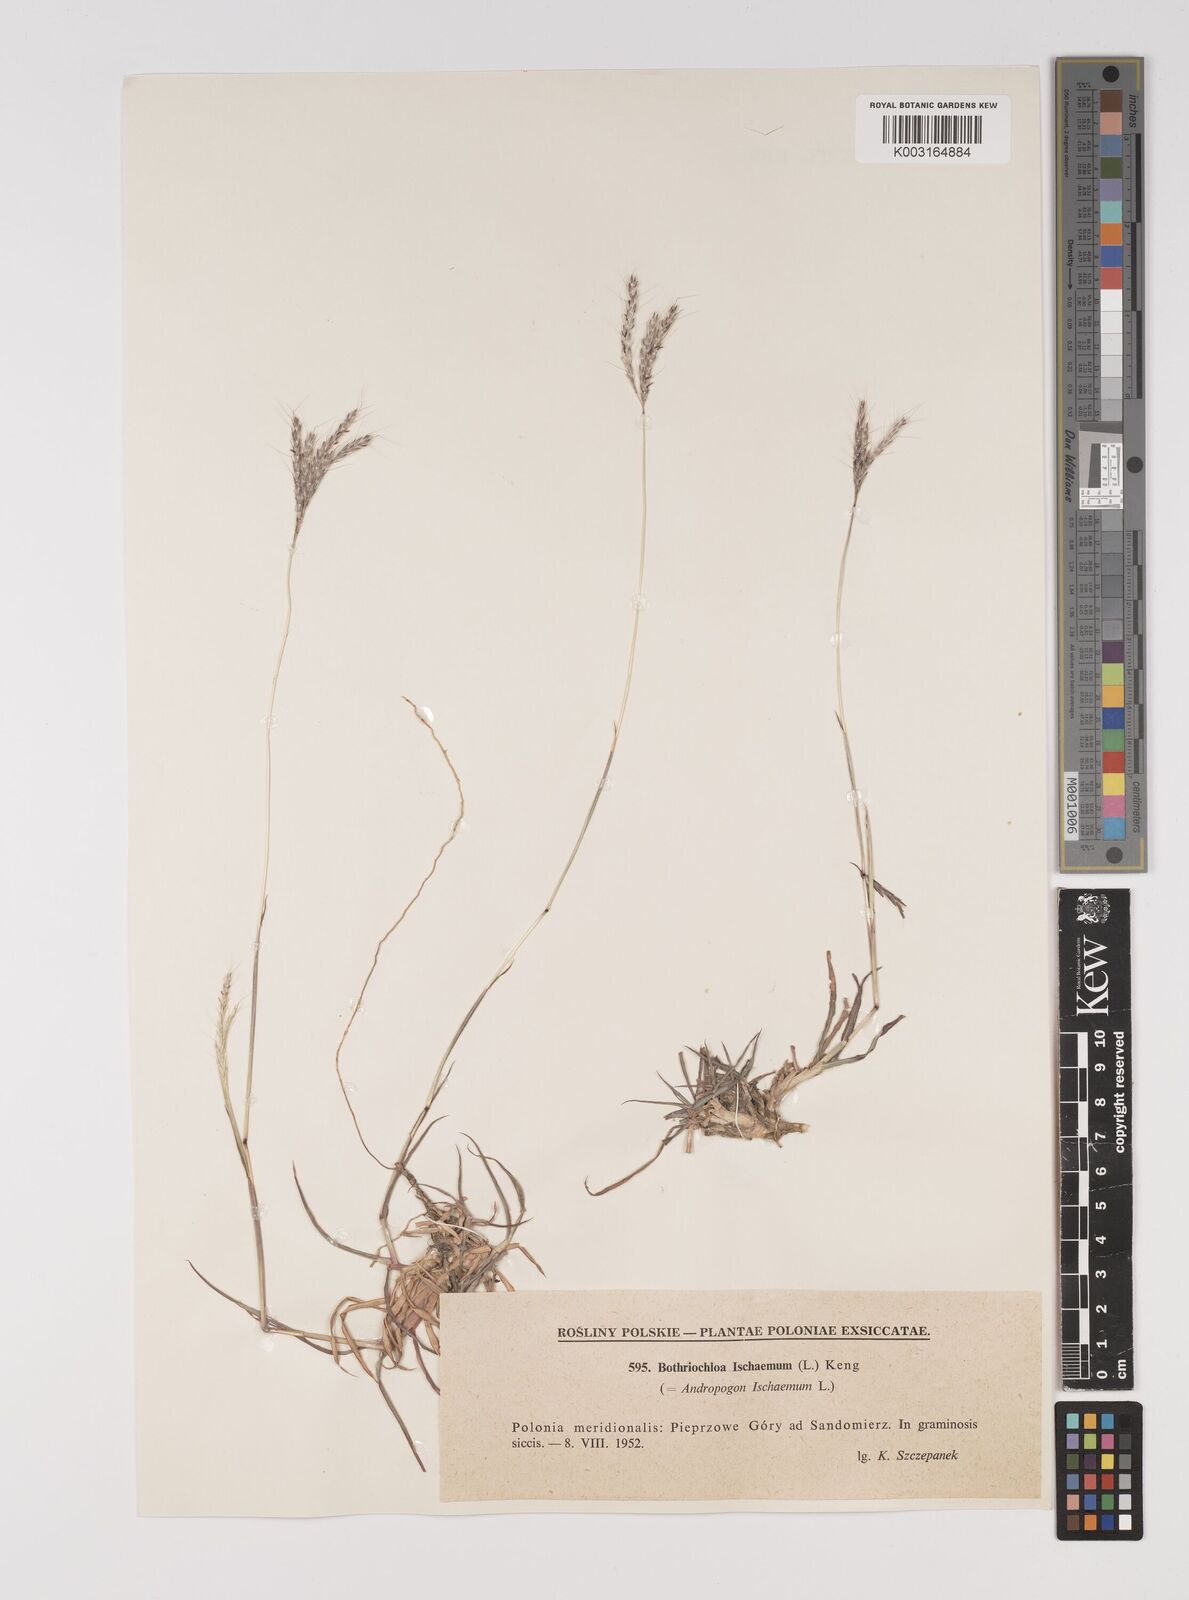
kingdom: Plantae
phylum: Tracheophyta
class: Liliopsida
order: Poales
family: Poaceae
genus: Bothriochloa
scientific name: Bothriochloa ischaemum
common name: Yellow bluestem
